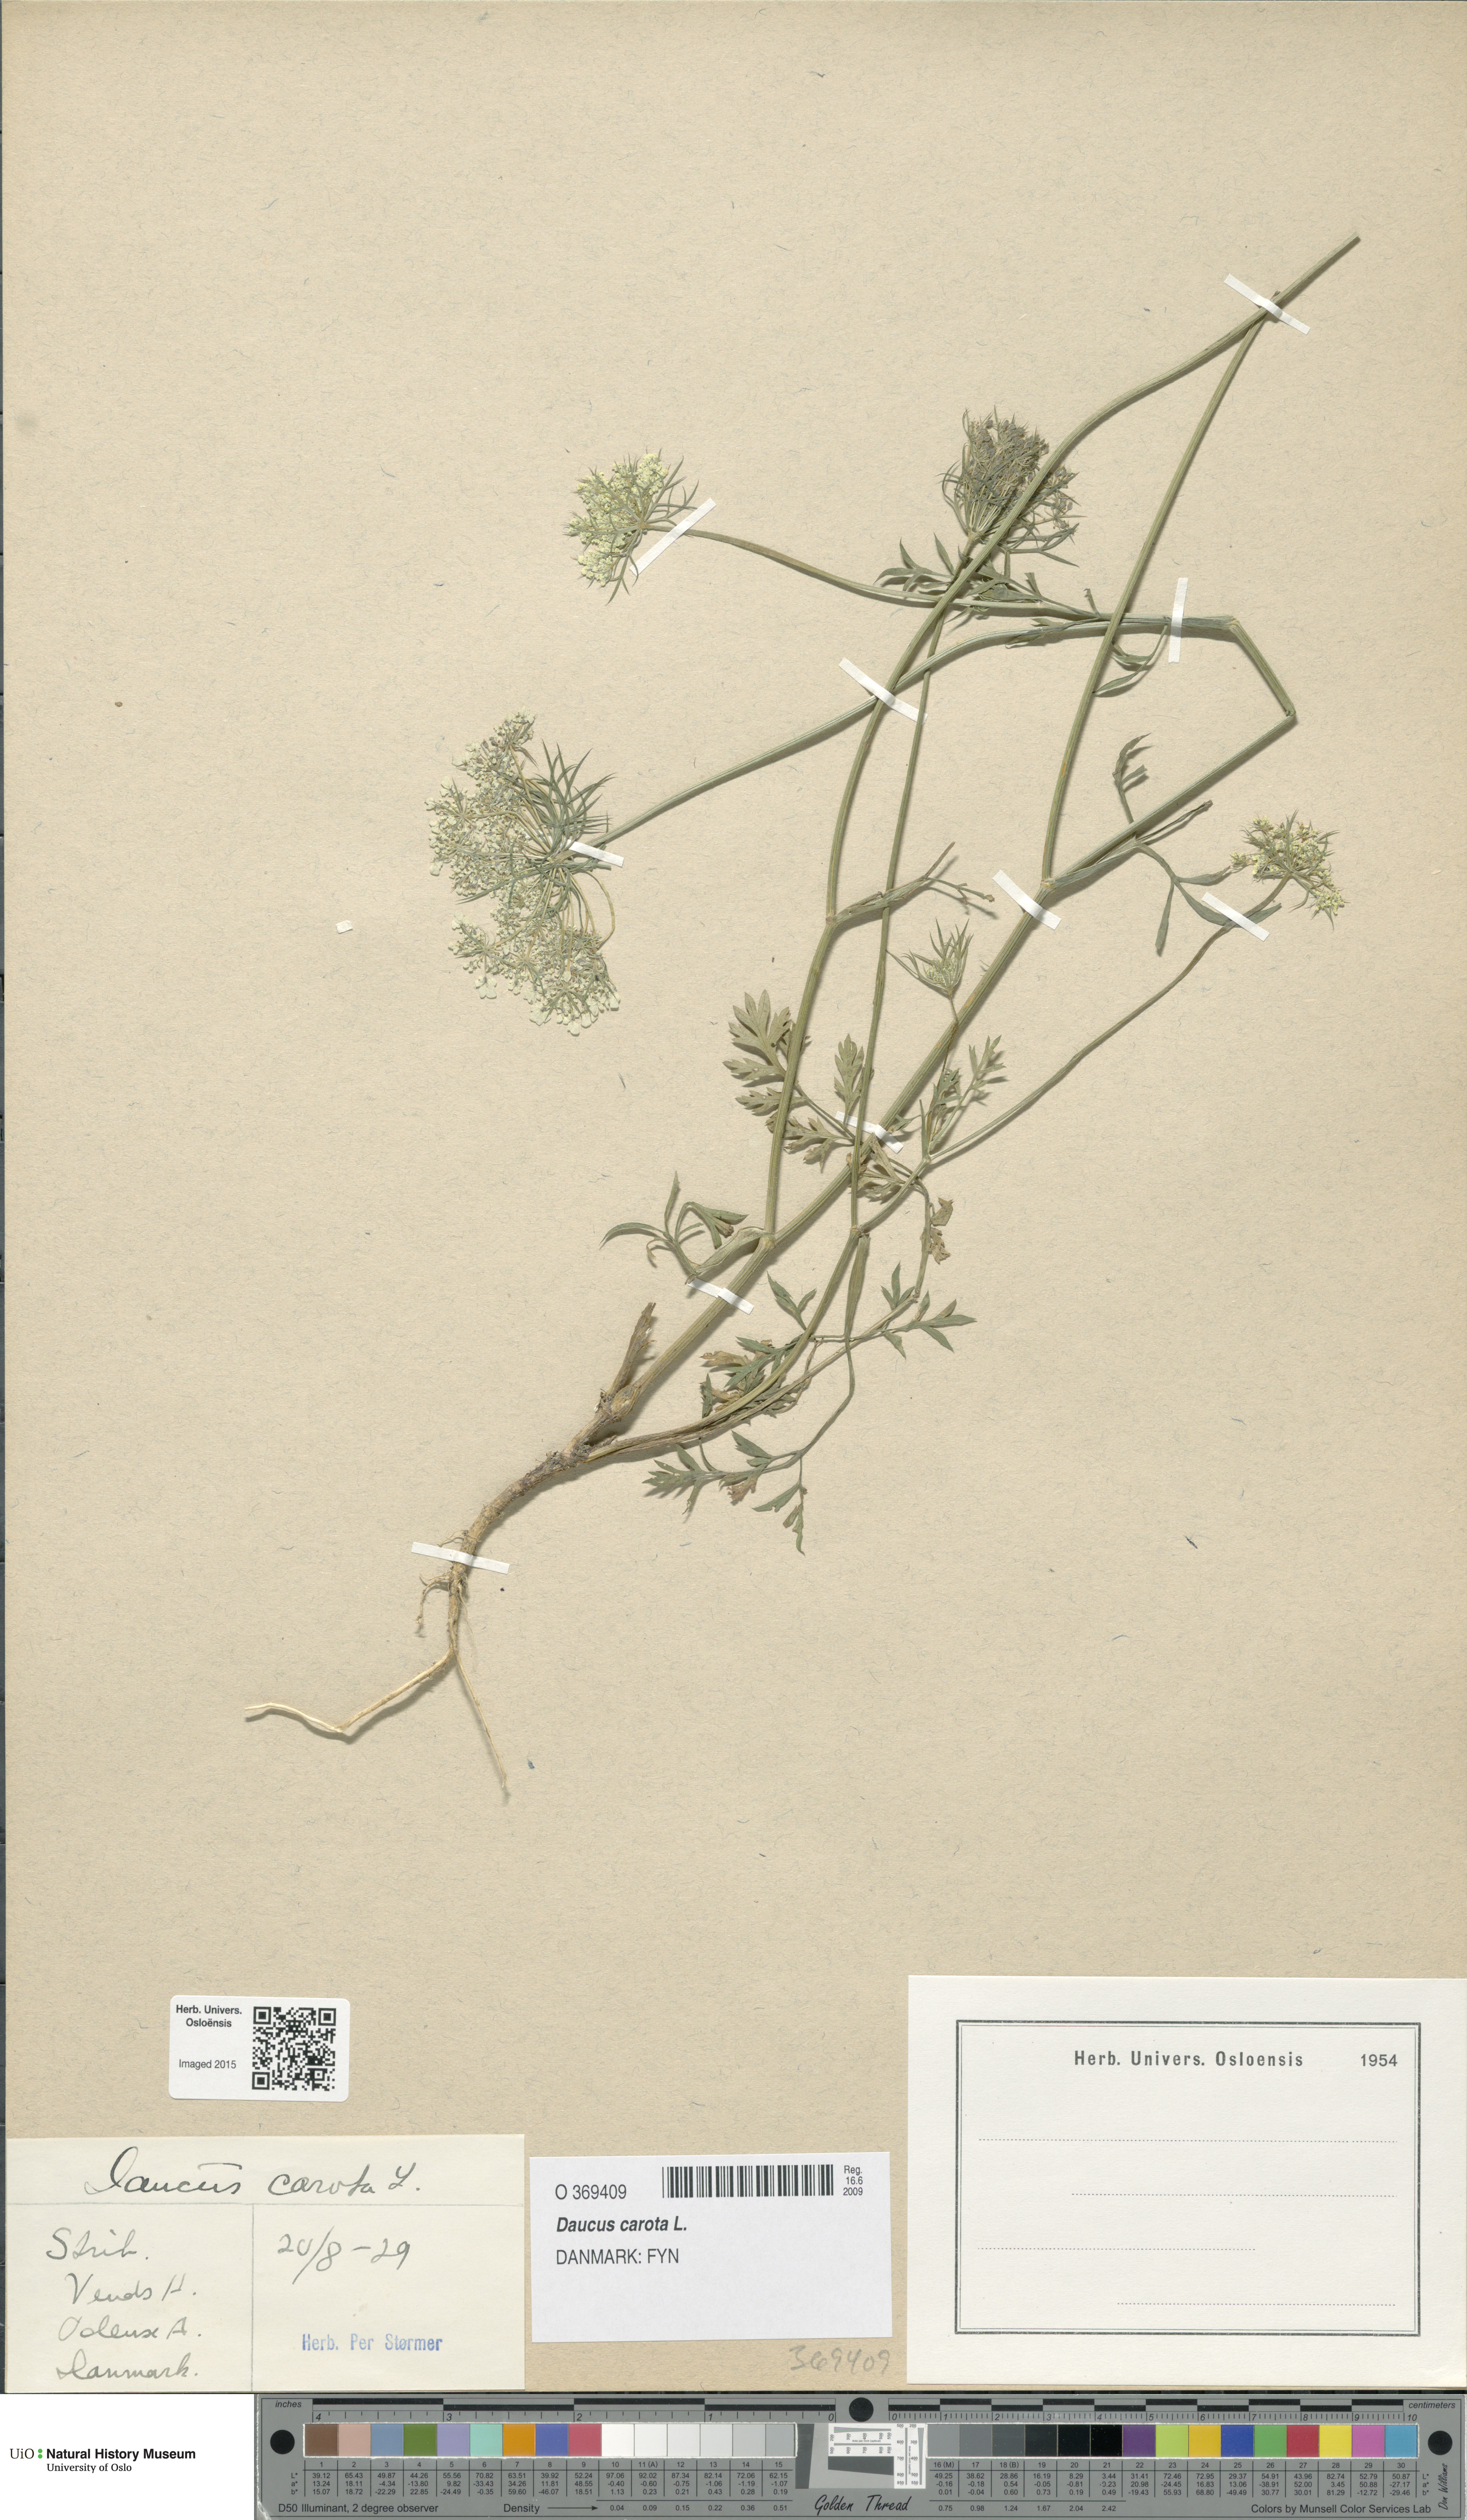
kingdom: Plantae
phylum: Tracheophyta
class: Magnoliopsida
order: Apiales
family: Apiaceae
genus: Daucus
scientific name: Daucus carota
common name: Wild carrot
